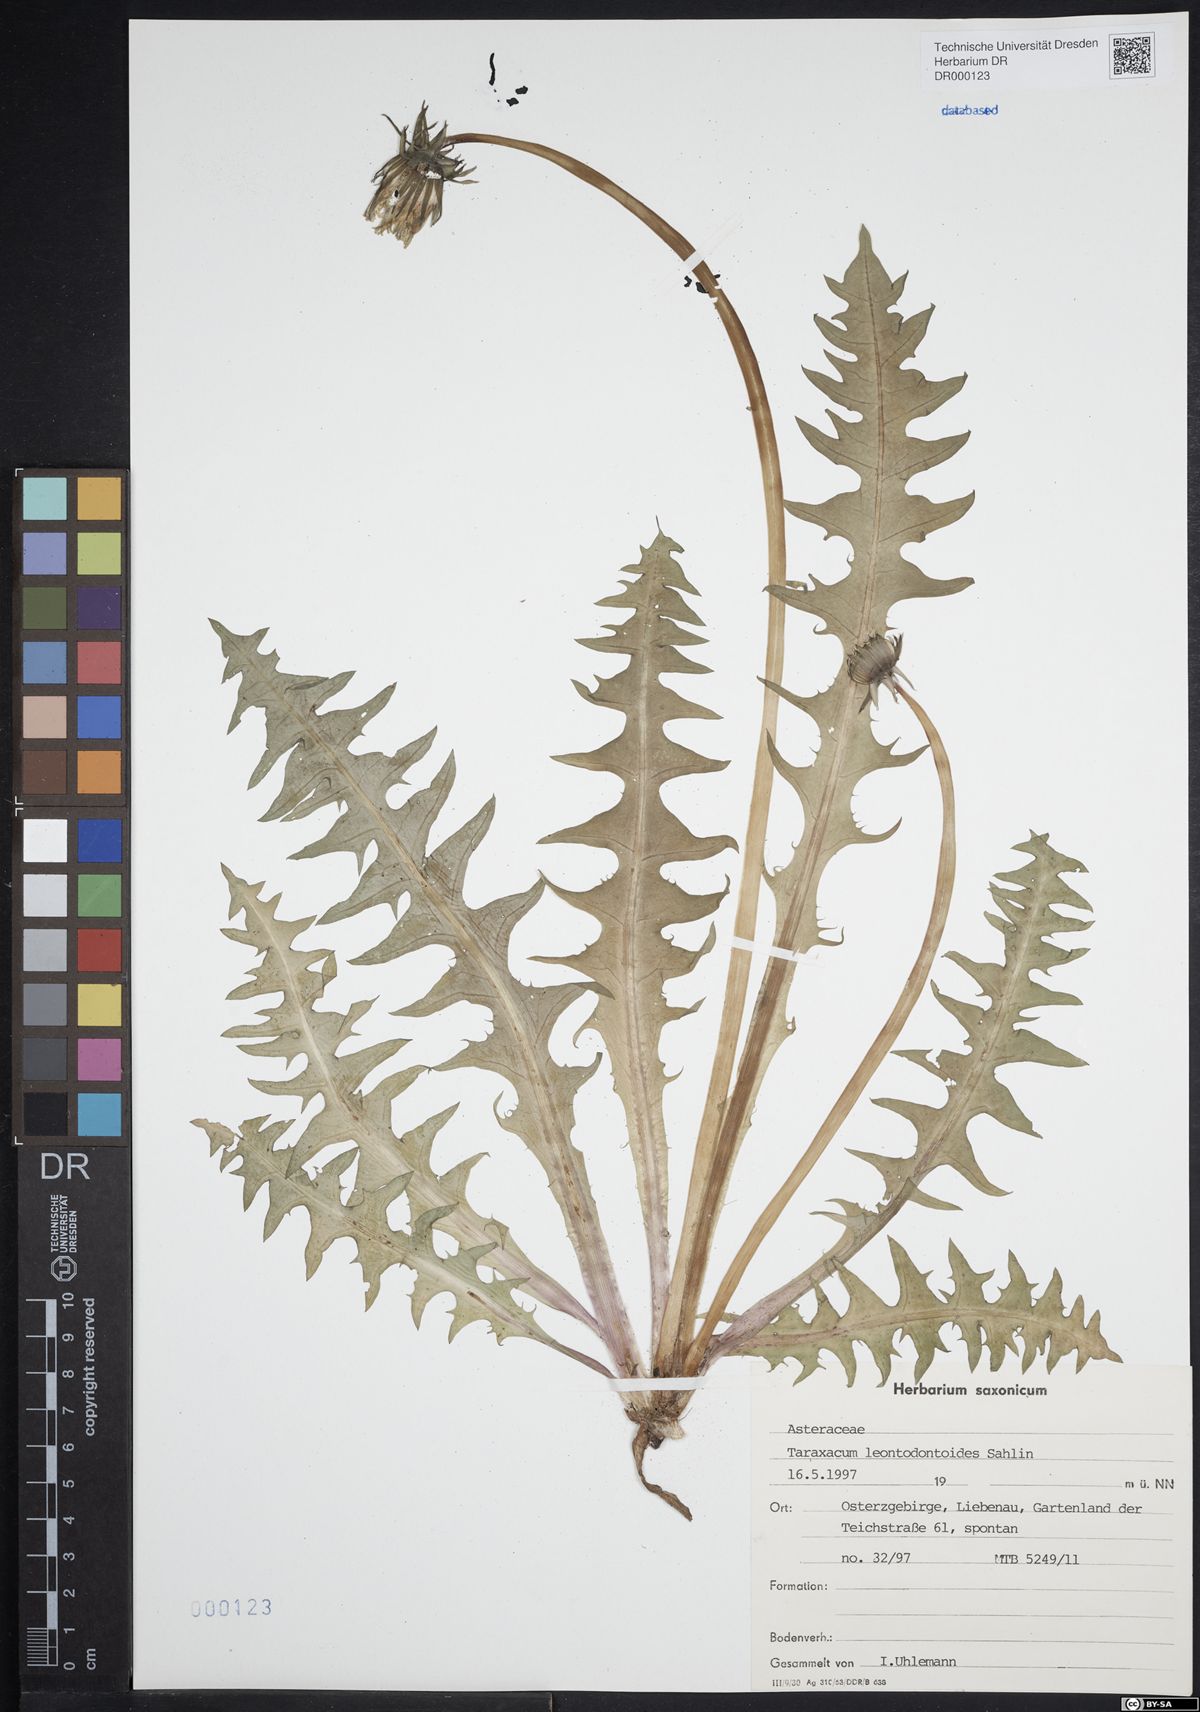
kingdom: Plantae
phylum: Tracheophyta
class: Magnoliopsida
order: Asterales
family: Asteraceae
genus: Taraxacum
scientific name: Taraxacum gentile
